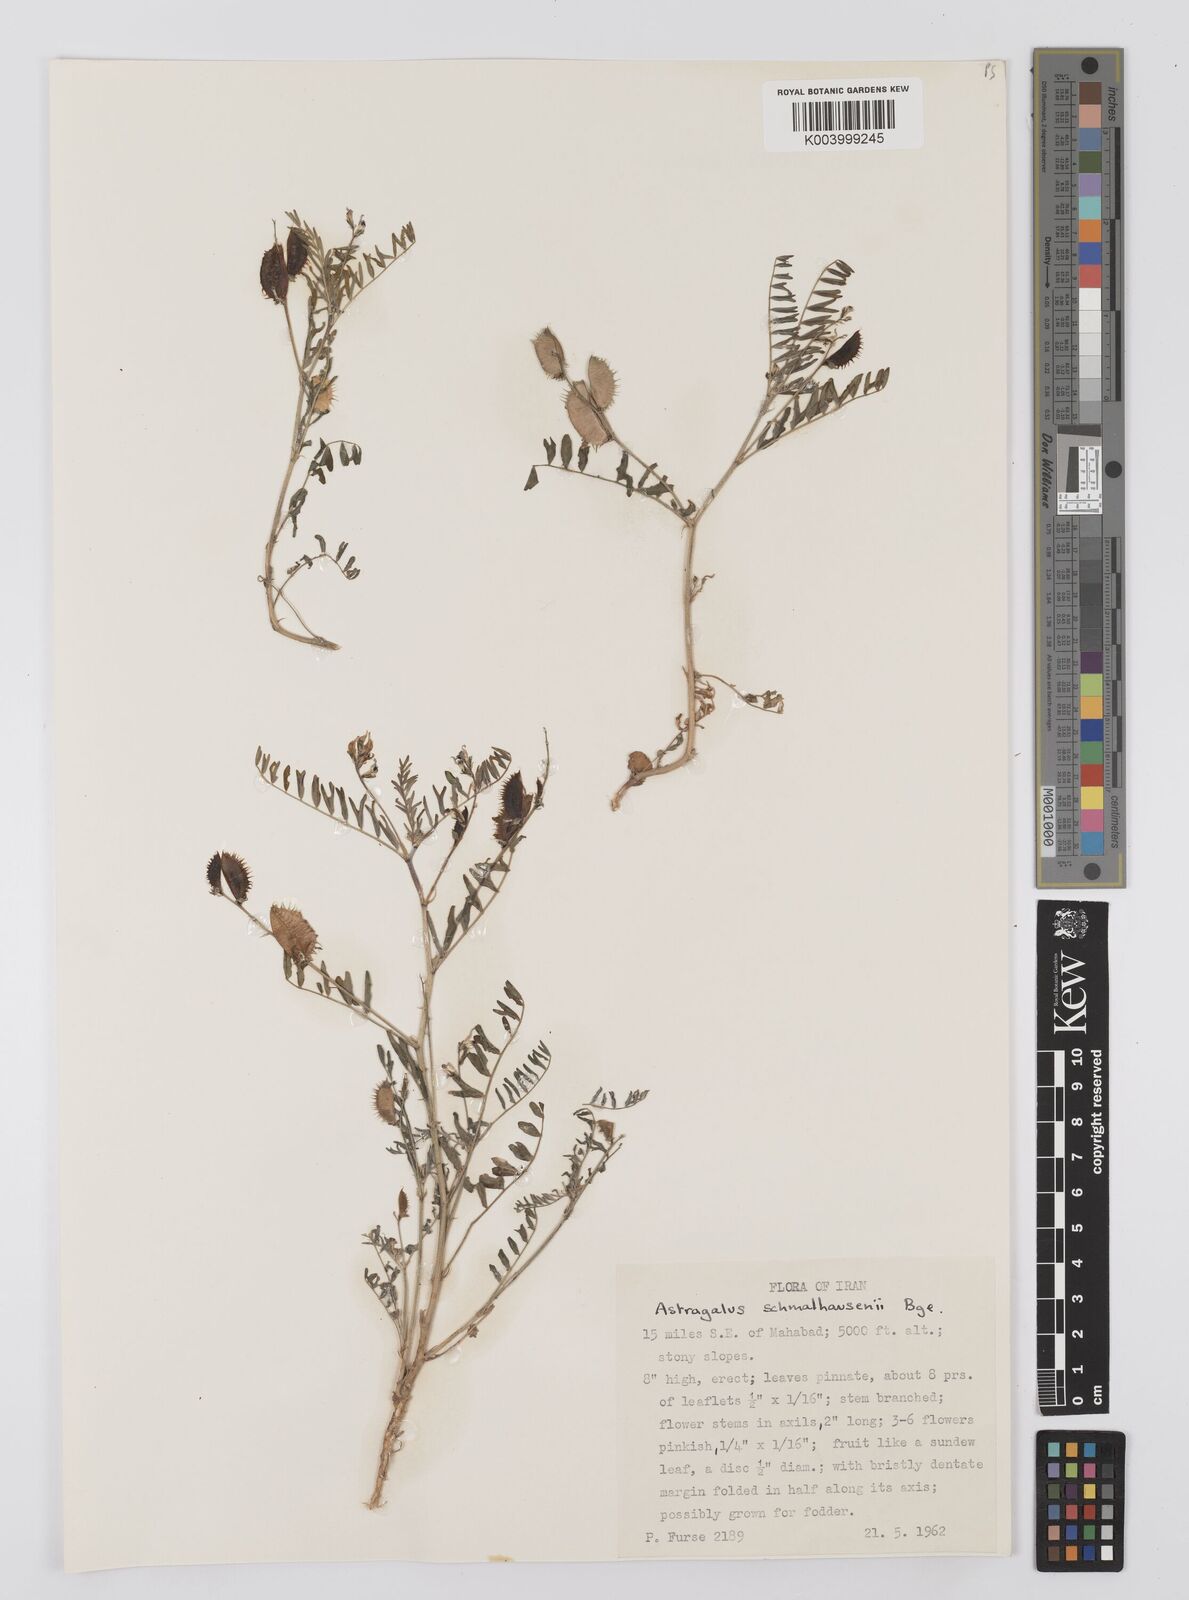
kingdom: Plantae
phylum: Tracheophyta
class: Magnoliopsida
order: Fabales
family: Fabaceae
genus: Astragalus
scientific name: Astragalus schmalhausenii
